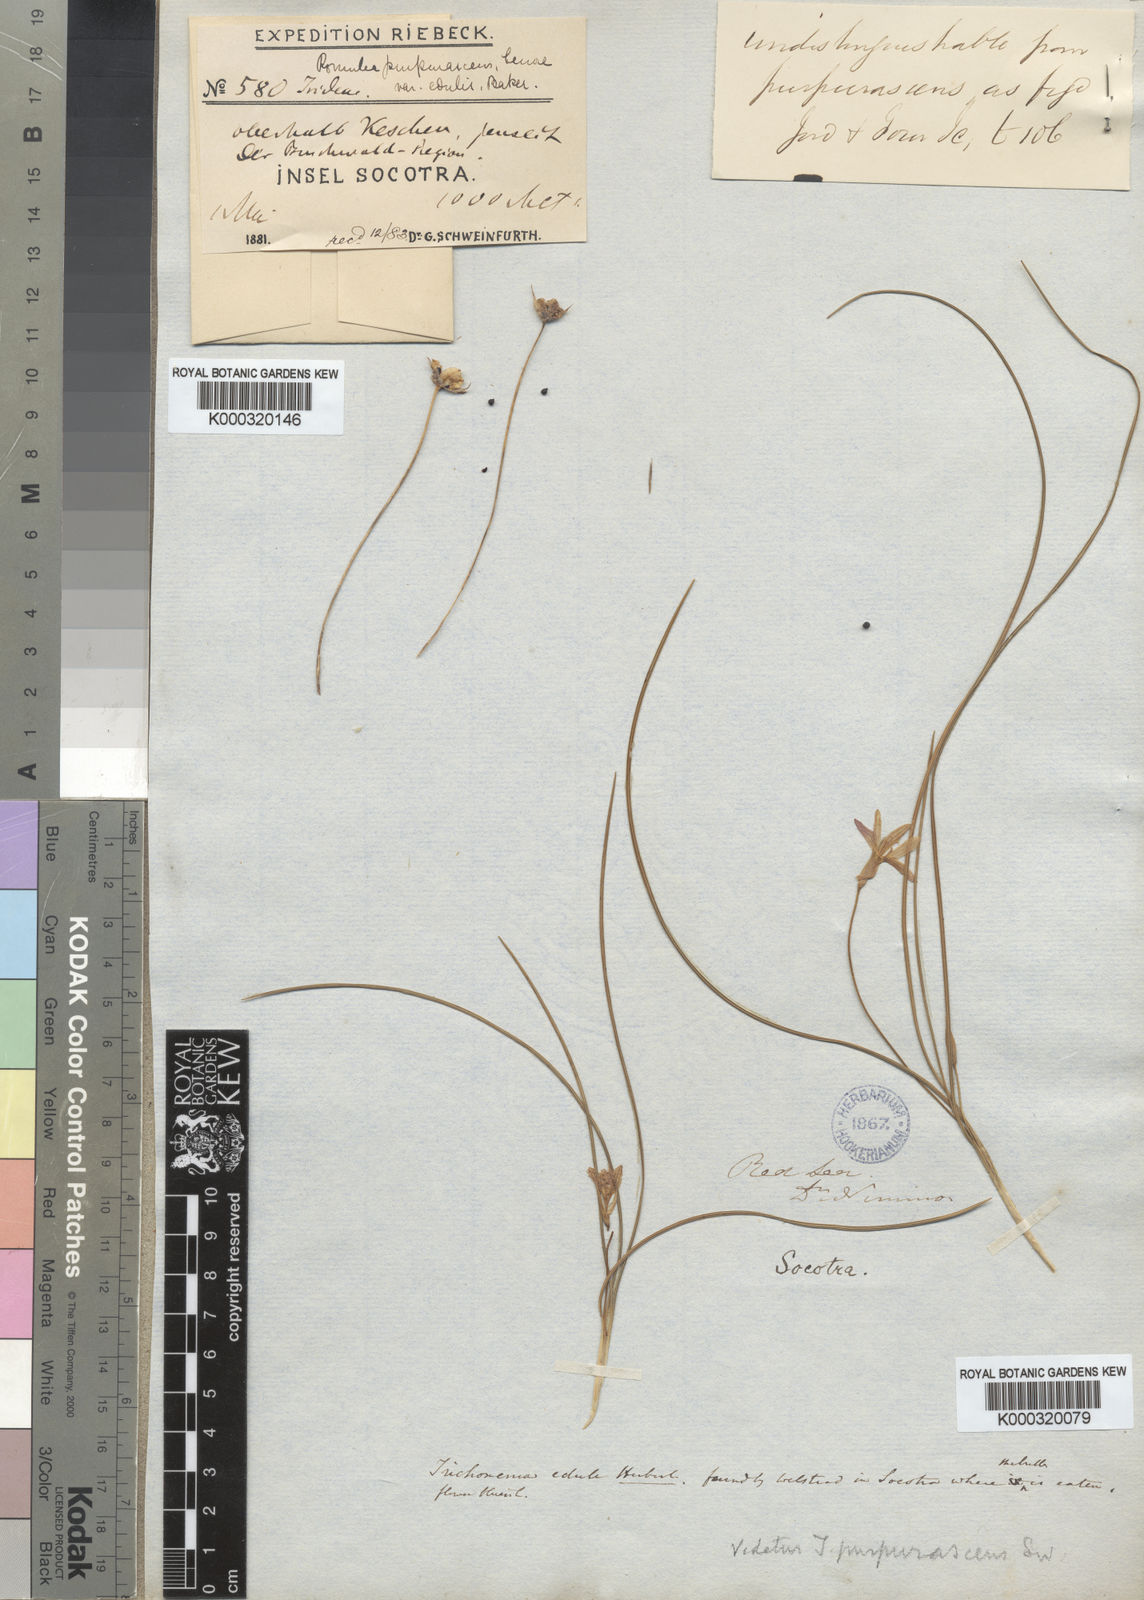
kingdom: Plantae
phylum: Tracheophyta
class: Liliopsida
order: Asparagales
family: Iridaceae
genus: Romulea
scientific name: Romulea bulbocodium
